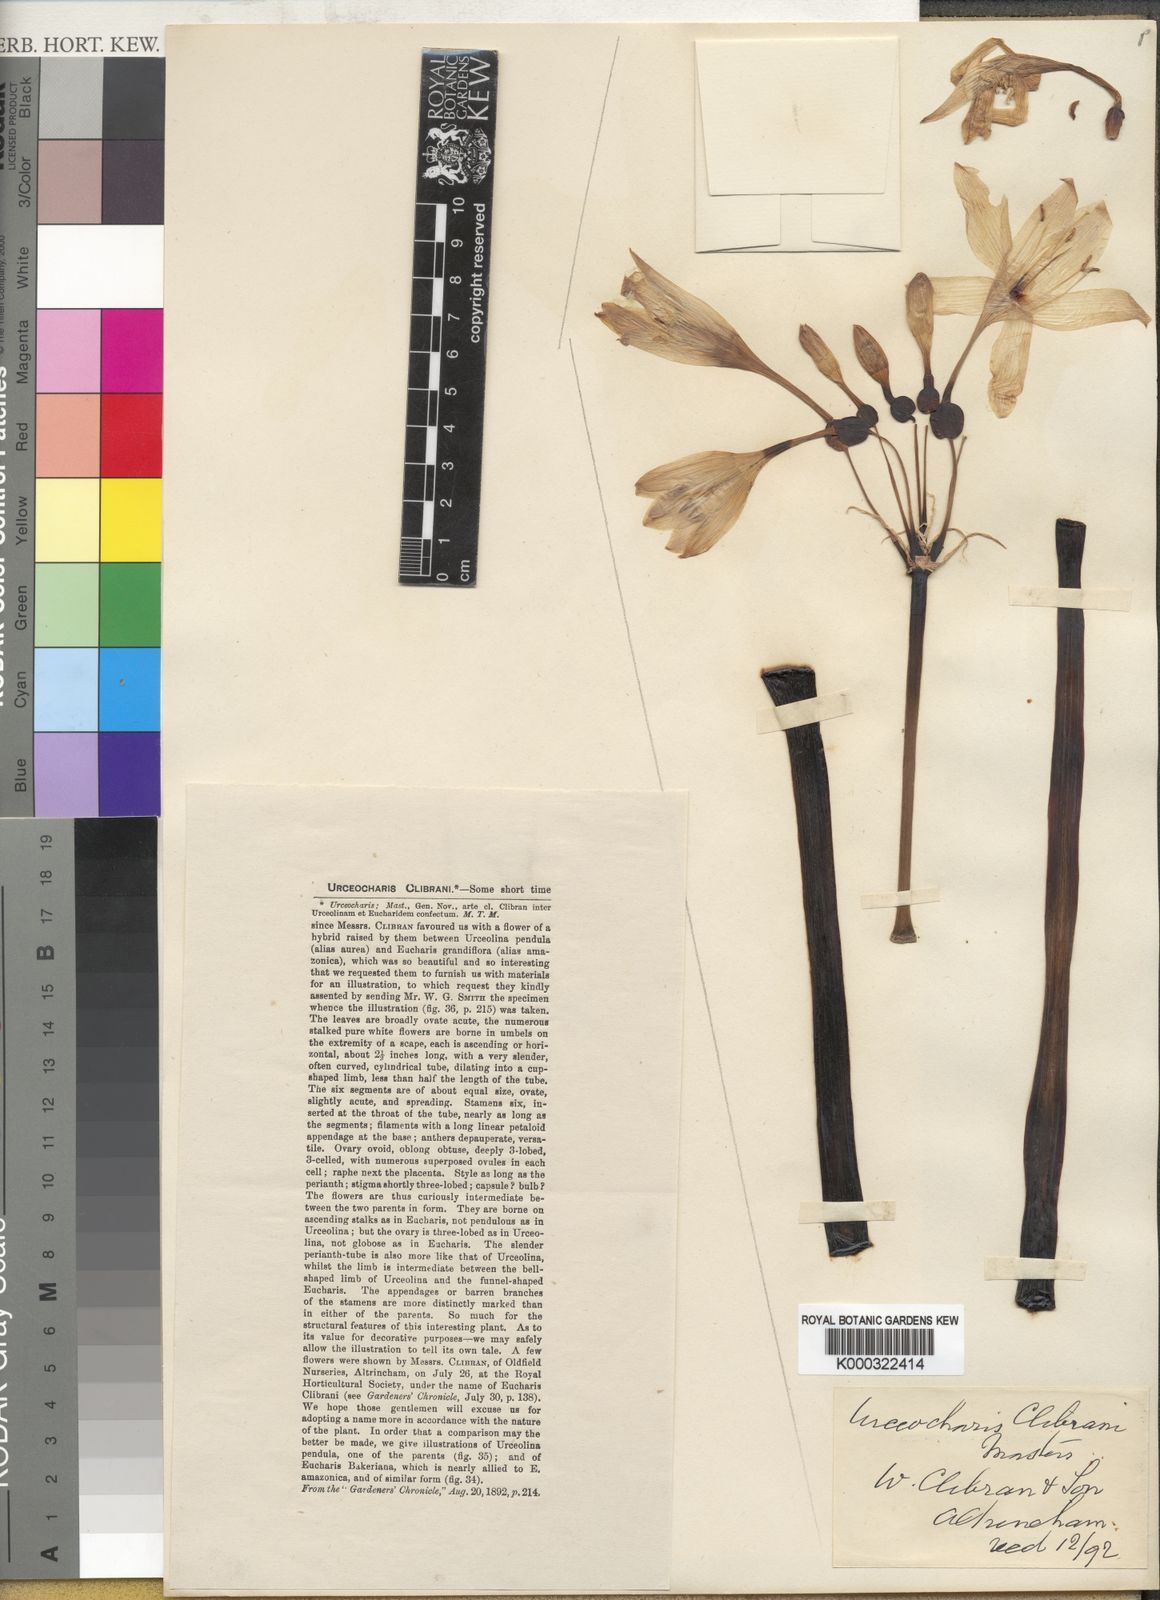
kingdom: Plantae
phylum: Tracheophyta
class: Liliopsida
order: Asparagales
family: Amaryllidaceae
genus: Urceocharis
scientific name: Urceocharis clibranii
